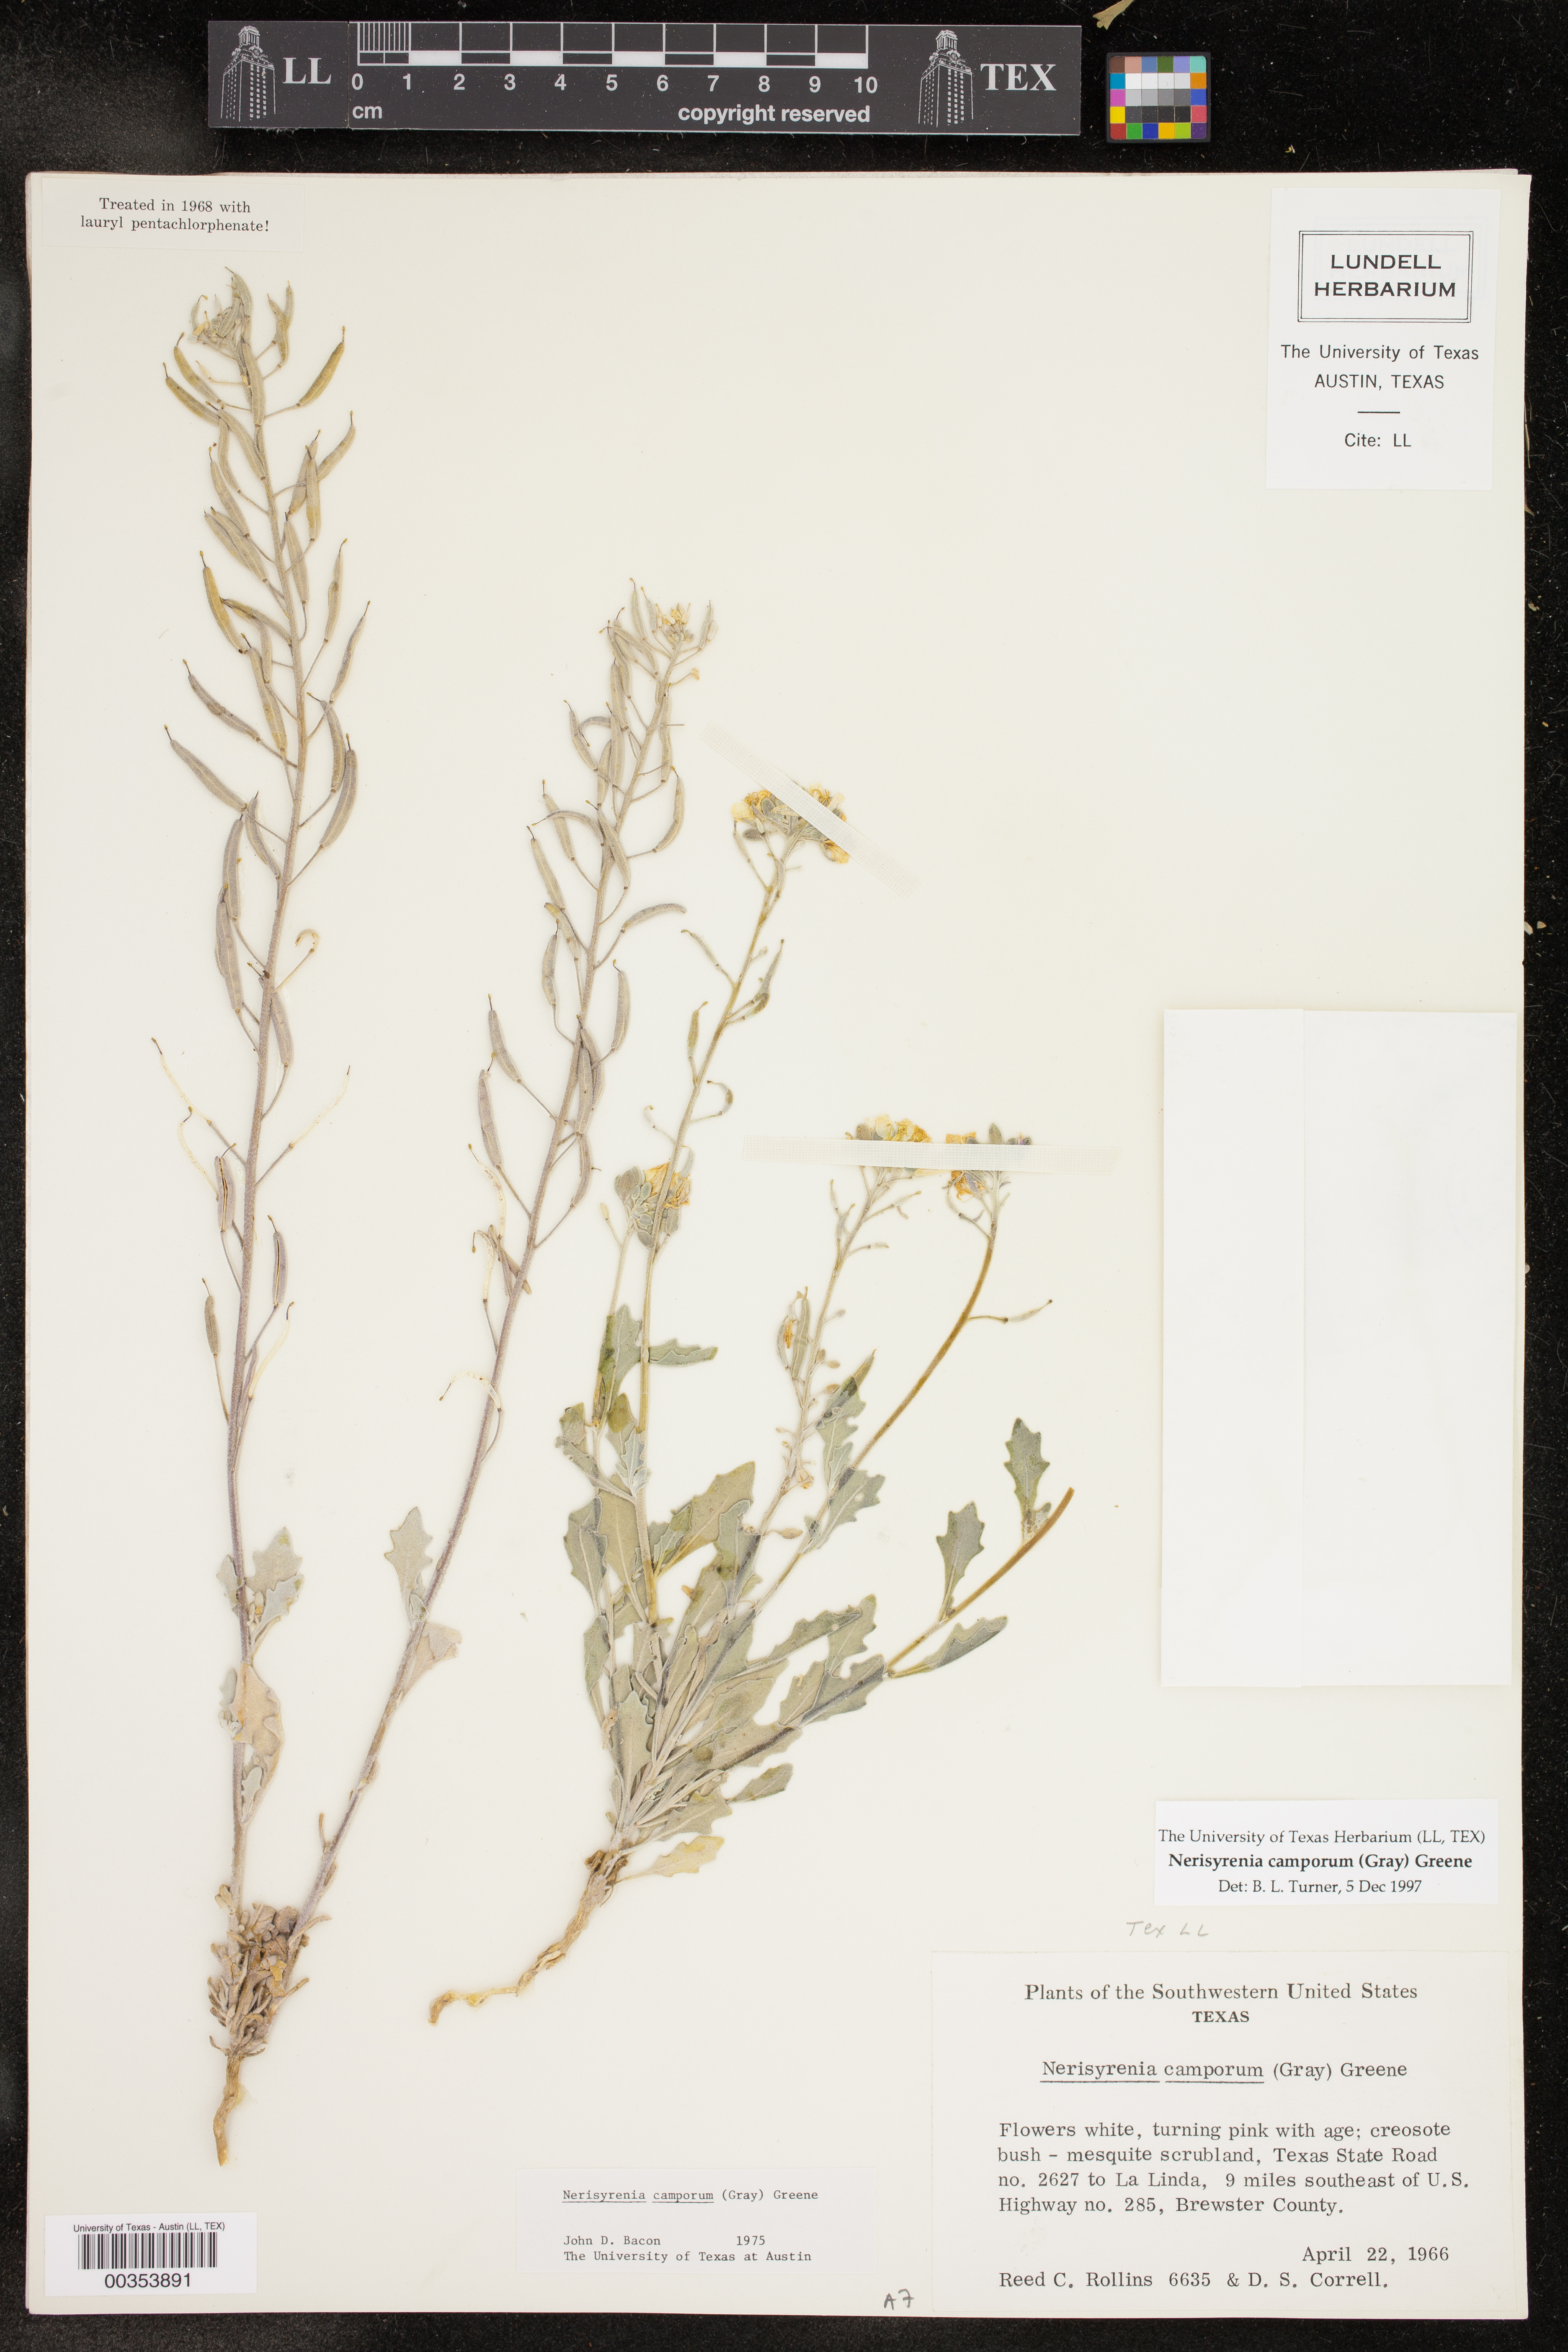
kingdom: Plantae
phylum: Tracheophyta
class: Magnoliopsida
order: Brassicales
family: Brassicaceae
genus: Nerisyrenia
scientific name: Nerisyrenia camporum
